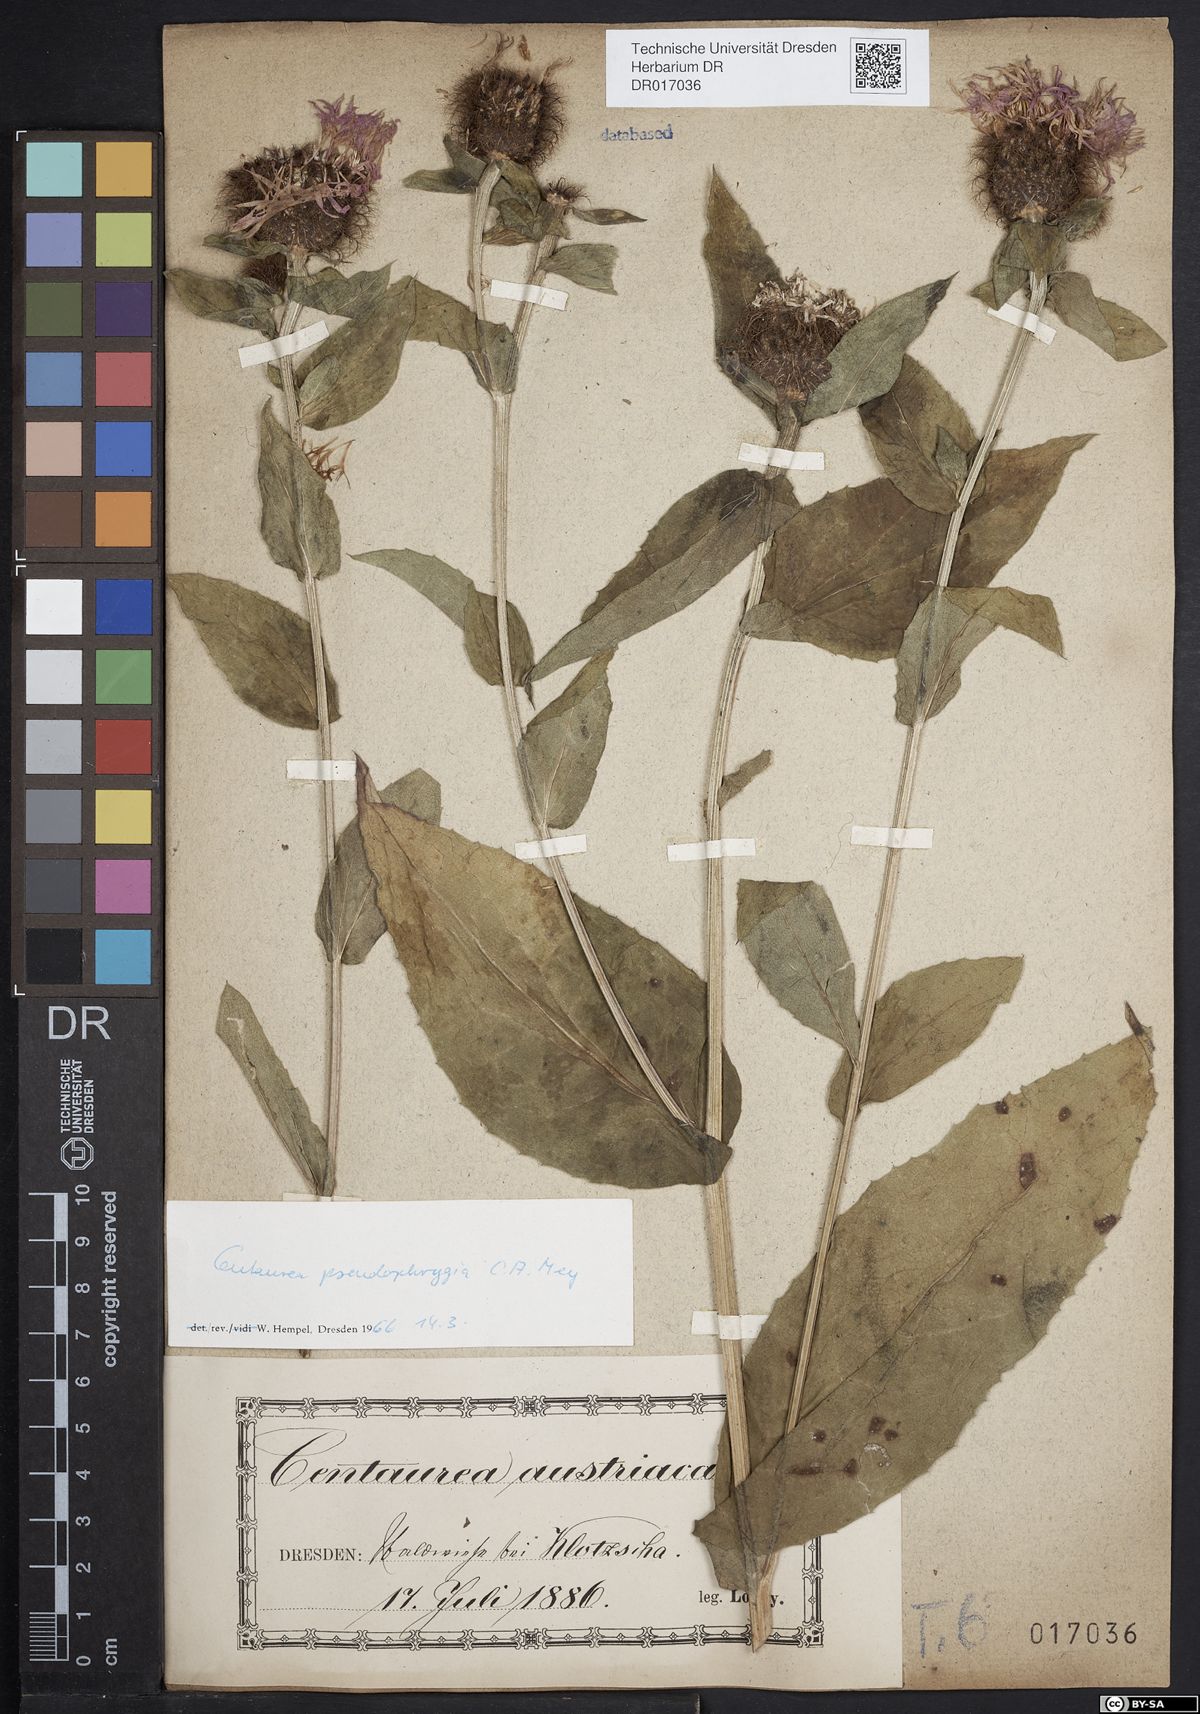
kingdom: Plantae
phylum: Tracheophyta
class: Magnoliopsida
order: Asterales
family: Asteraceae
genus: Centaurea
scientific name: Centaurea pseudophrygia
